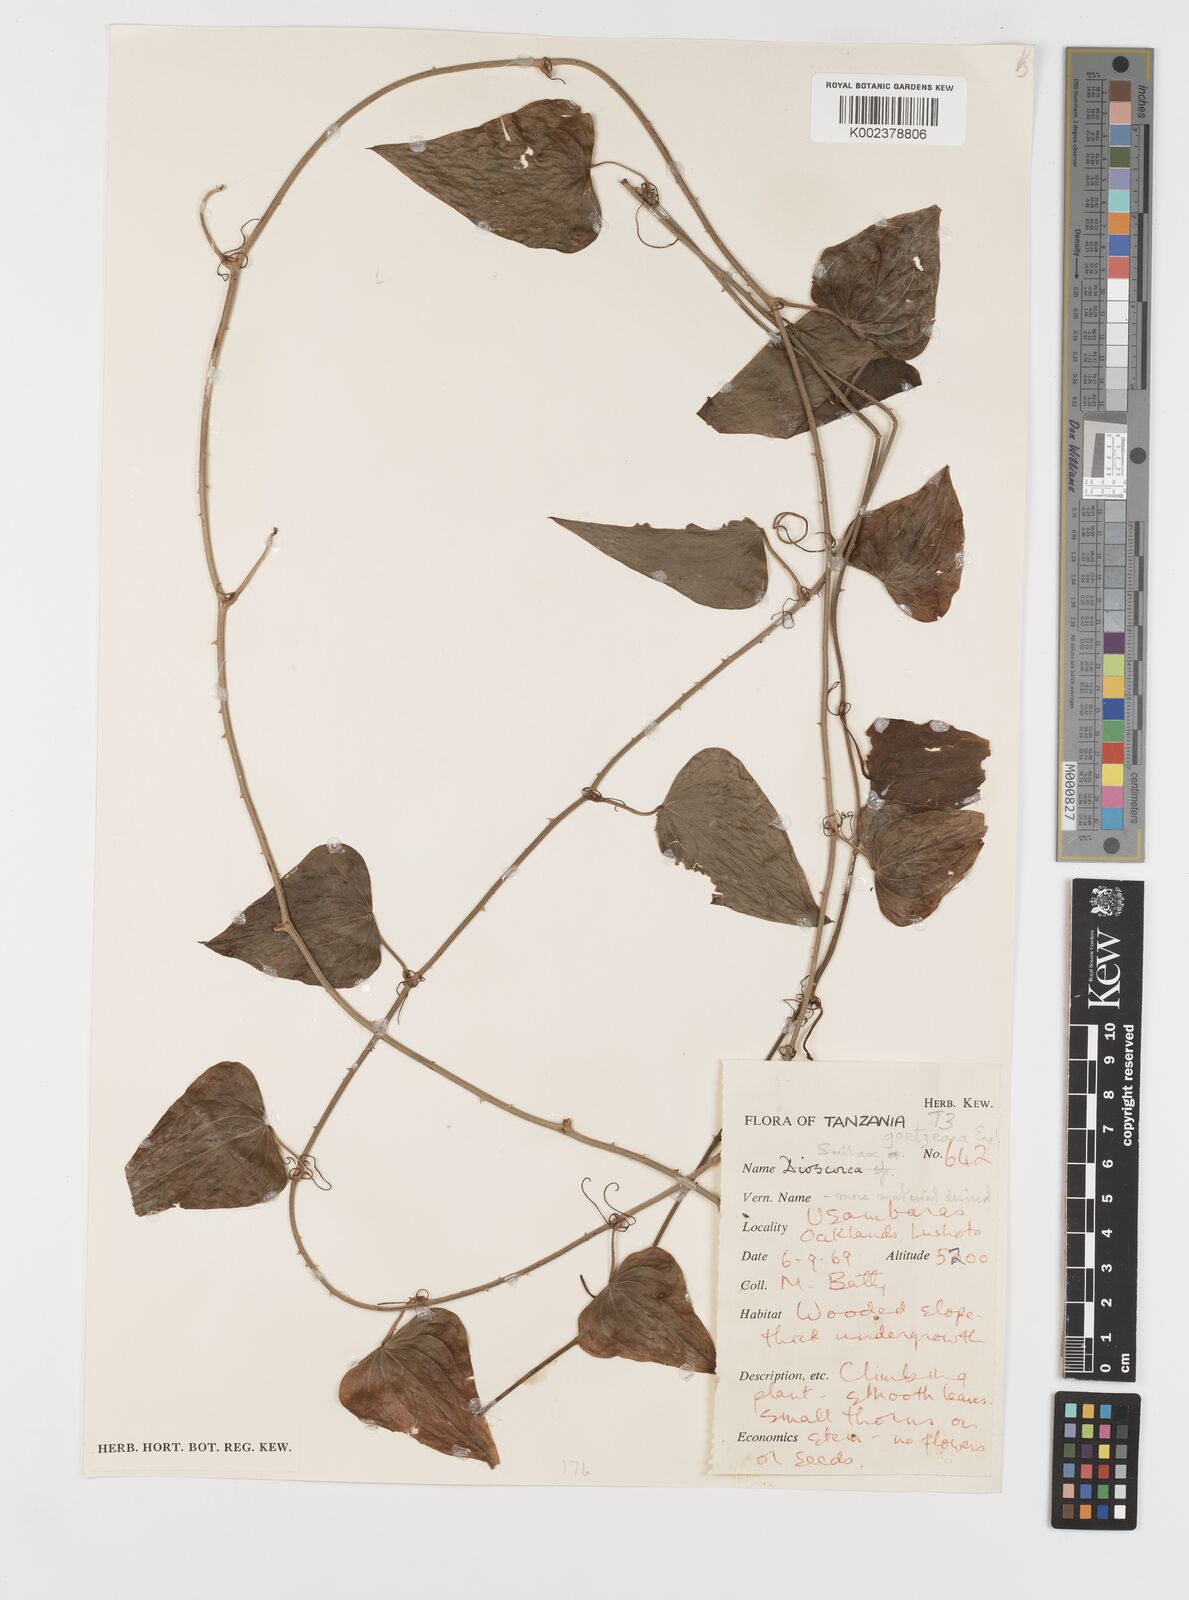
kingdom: Plantae
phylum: Tracheophyta
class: Liliopsida
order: Liliales
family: Smilacaceae
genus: Smilax
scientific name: Smilax aspera
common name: Common smilax
